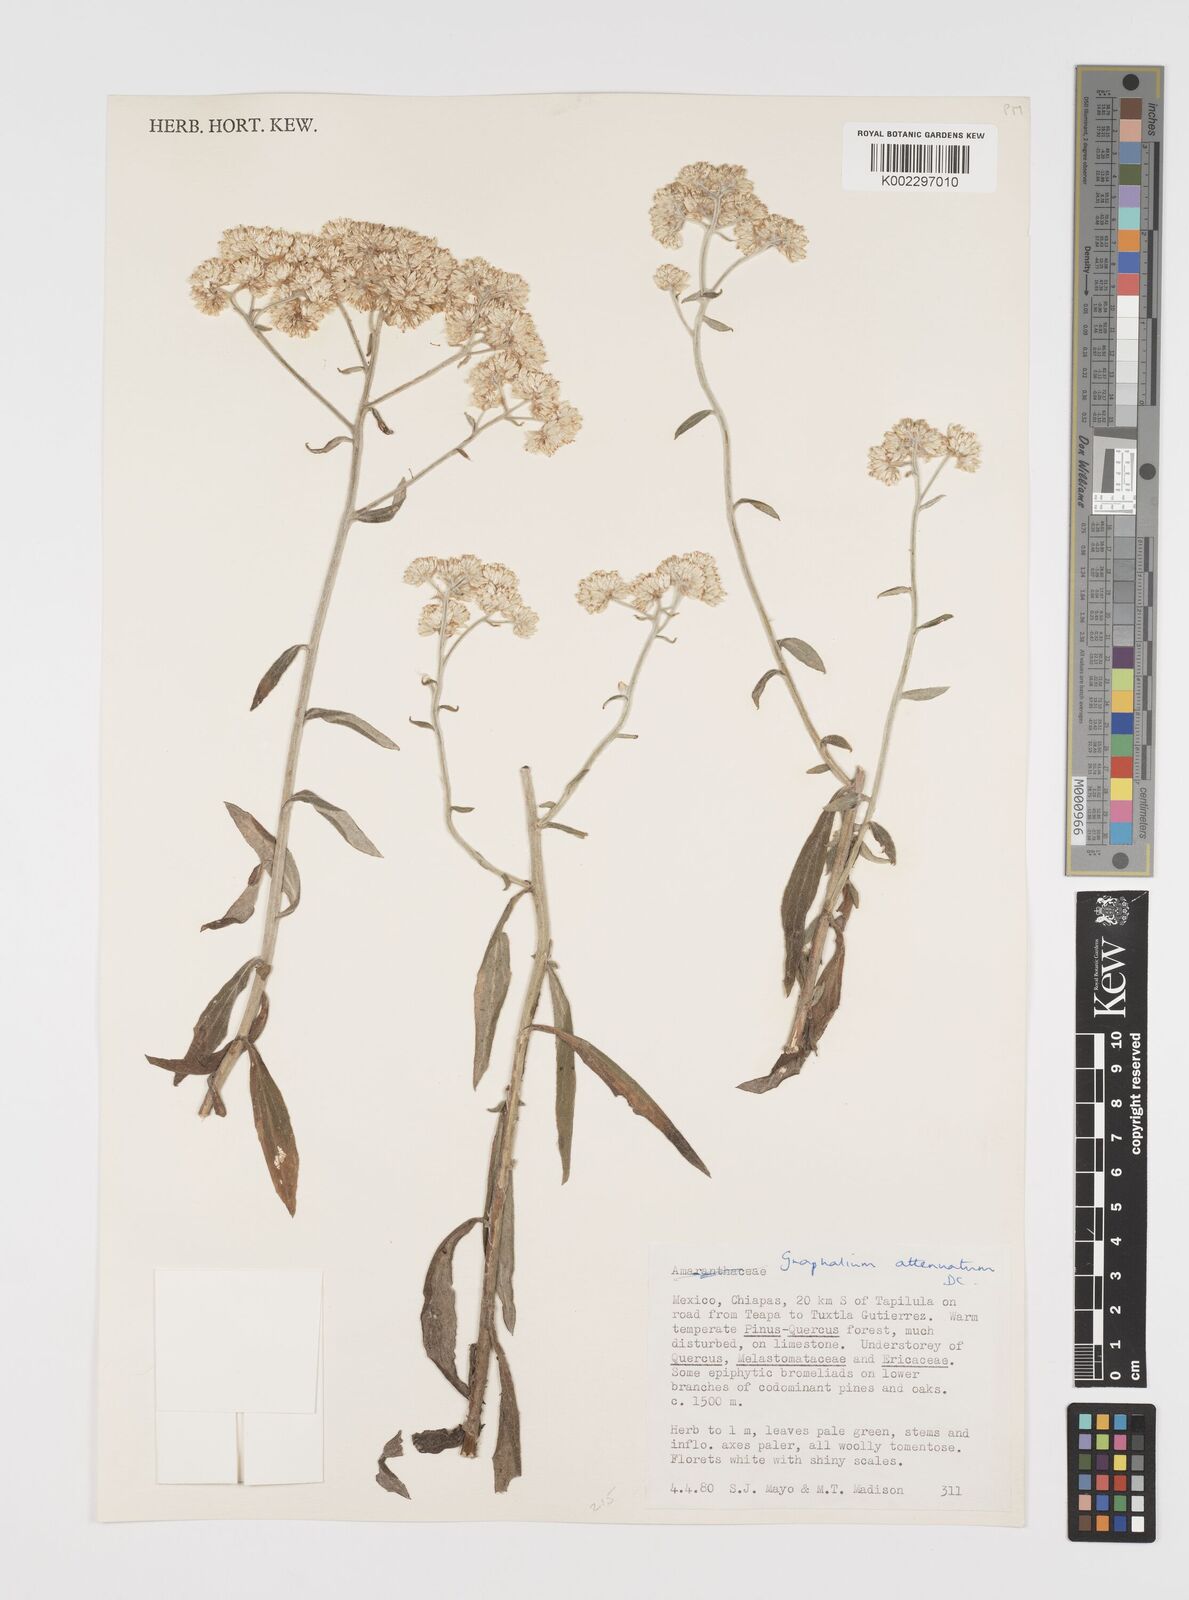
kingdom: Plantae
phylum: Tracheophyta
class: Magnoliopsida
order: Asterales
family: Asteraceae
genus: Pseudognaphalium
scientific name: Pseudognaphalium attenuatum
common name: Tapered cudweed
